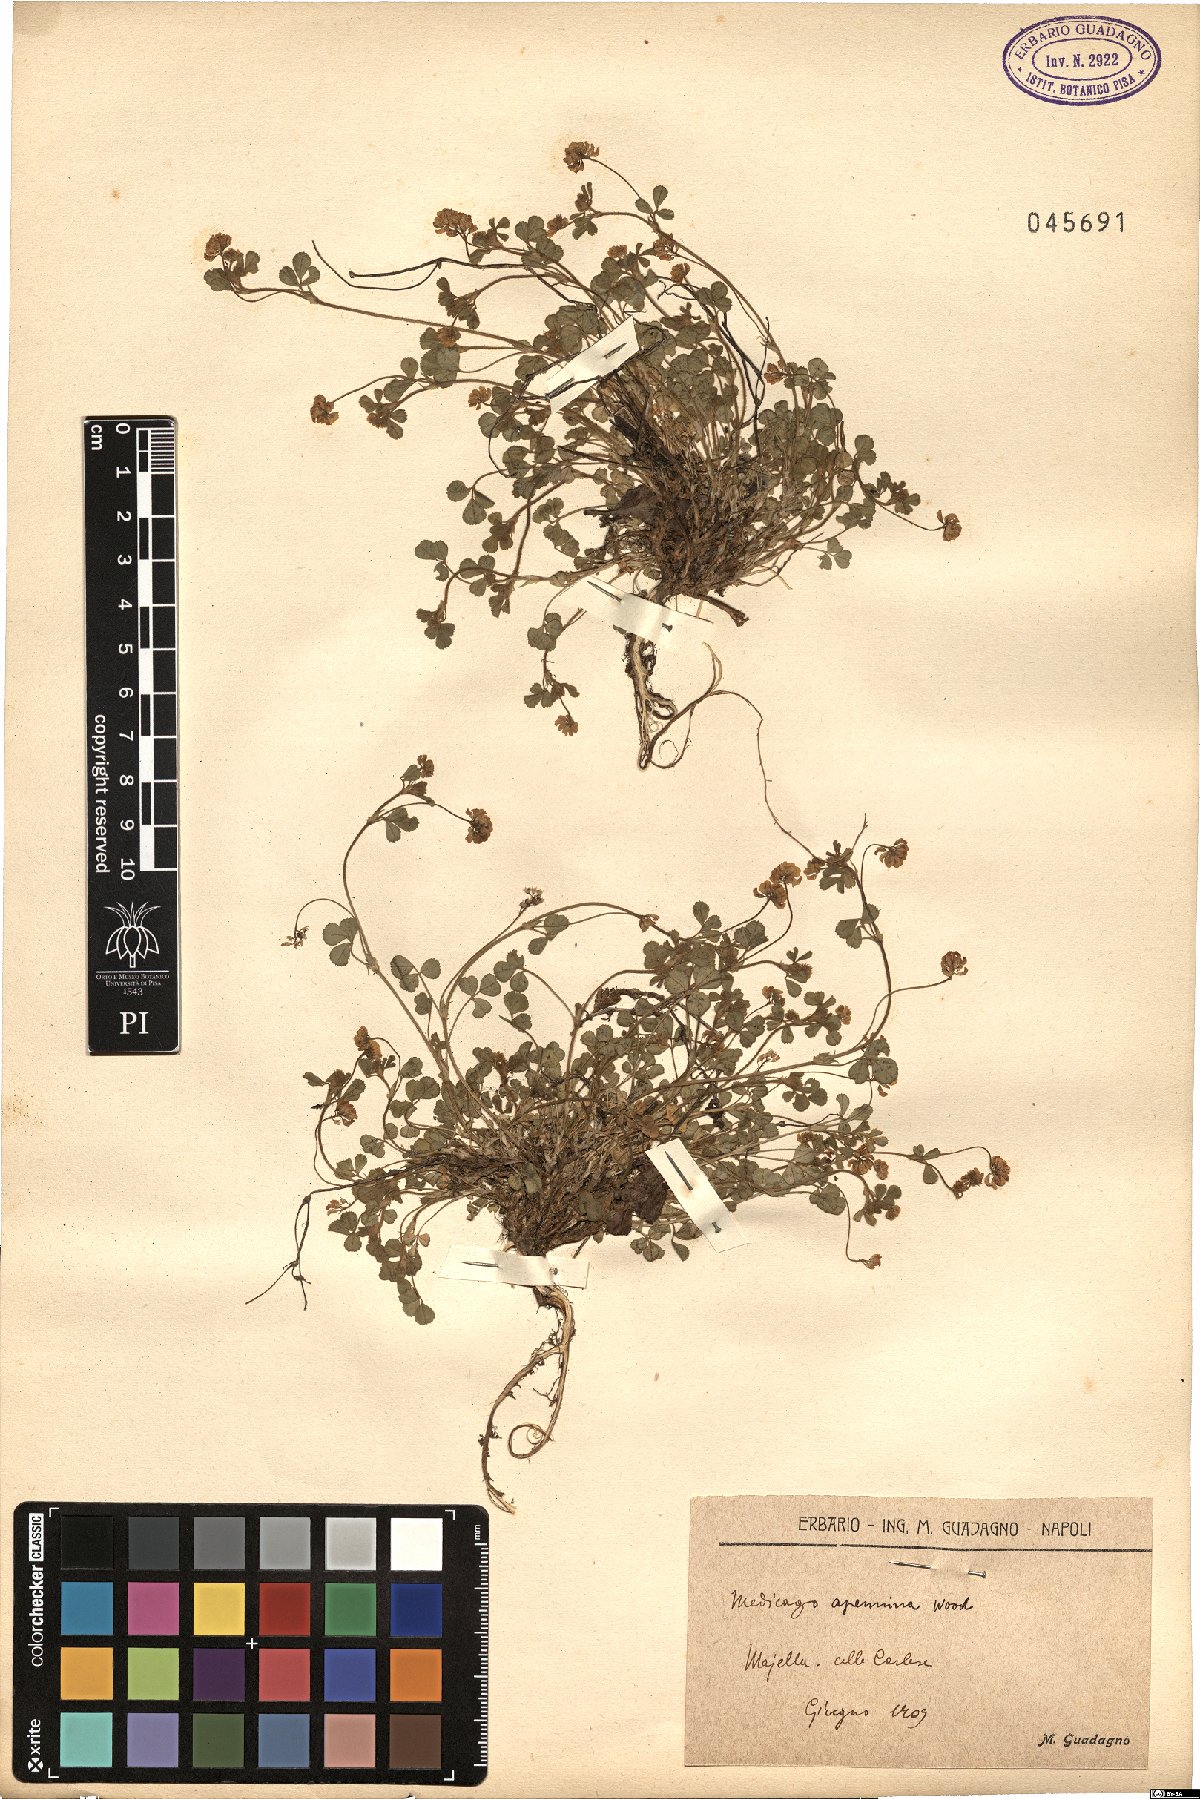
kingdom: Plantae
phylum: Tracheophyta
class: Magnoliopsida
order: Fabales
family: Fabaceae
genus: Medicago
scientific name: Medicago lupulina
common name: Black medick
